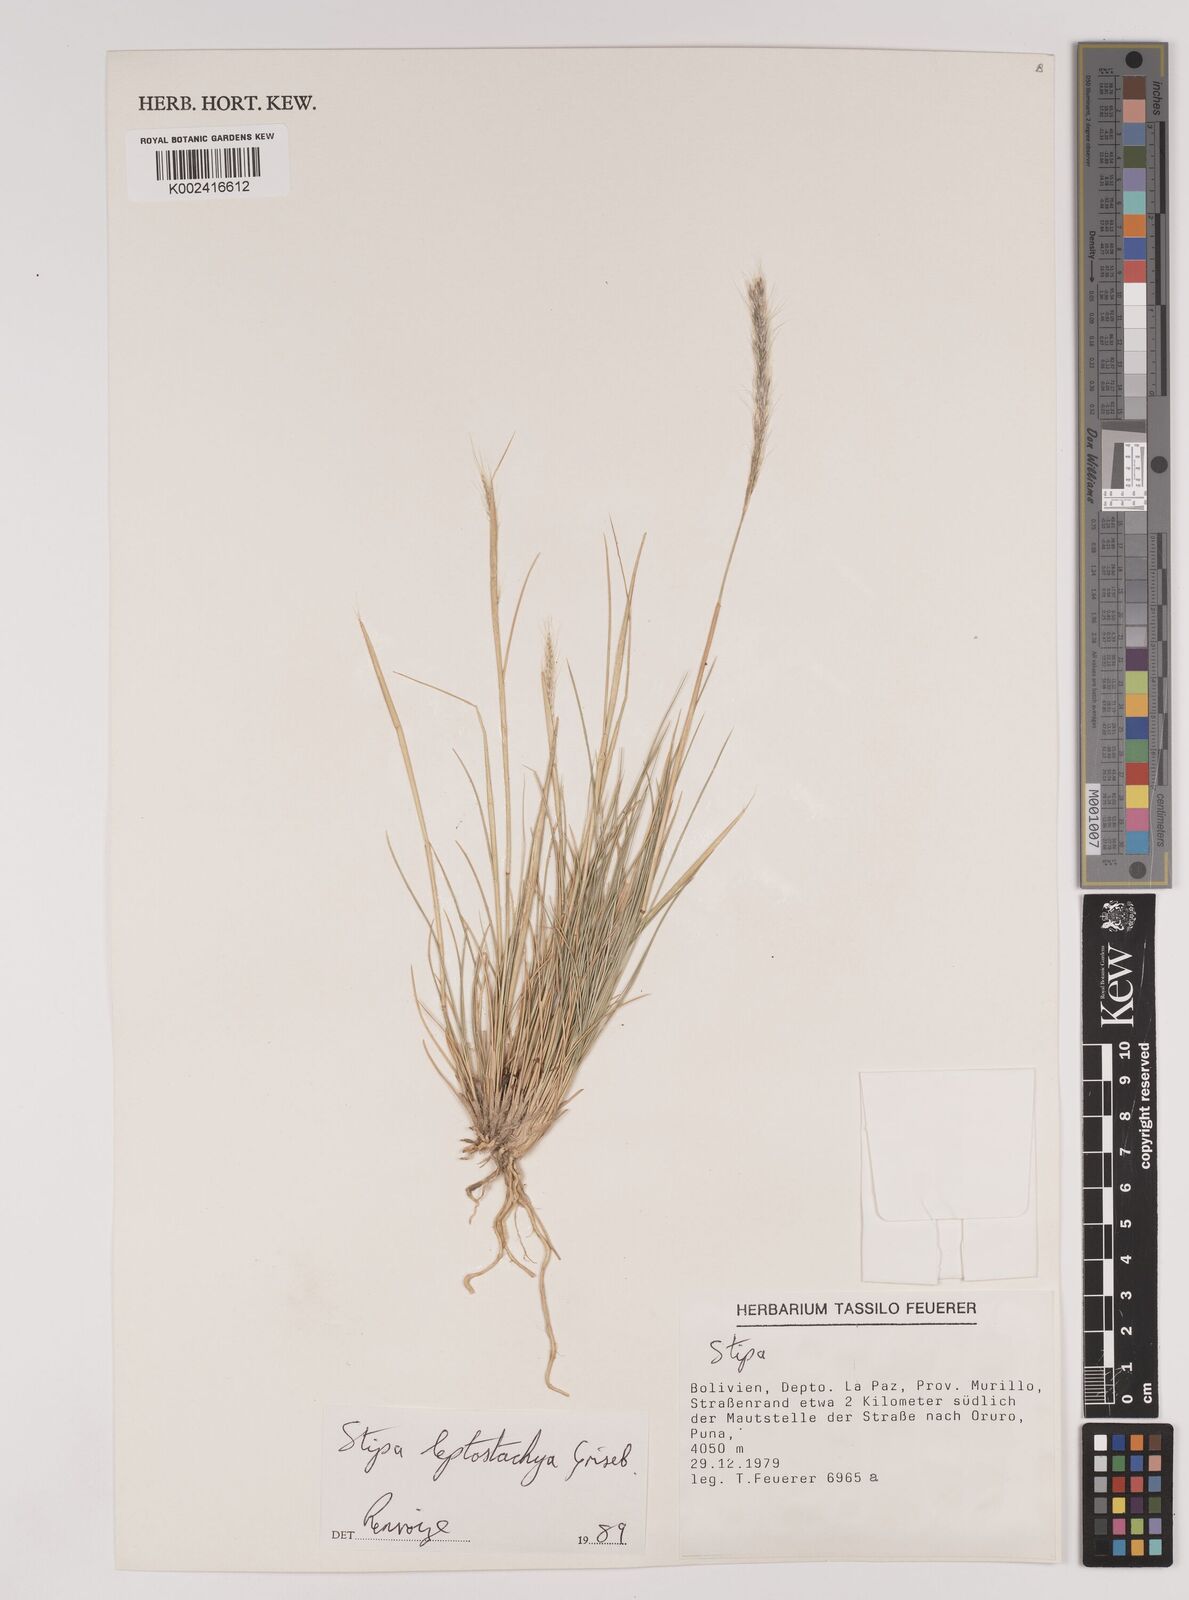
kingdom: Plantae
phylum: Tracheophyta
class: Liliopsida
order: Poales
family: Poaceae
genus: Austrostipa
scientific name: Austrostipa tenuifolia
